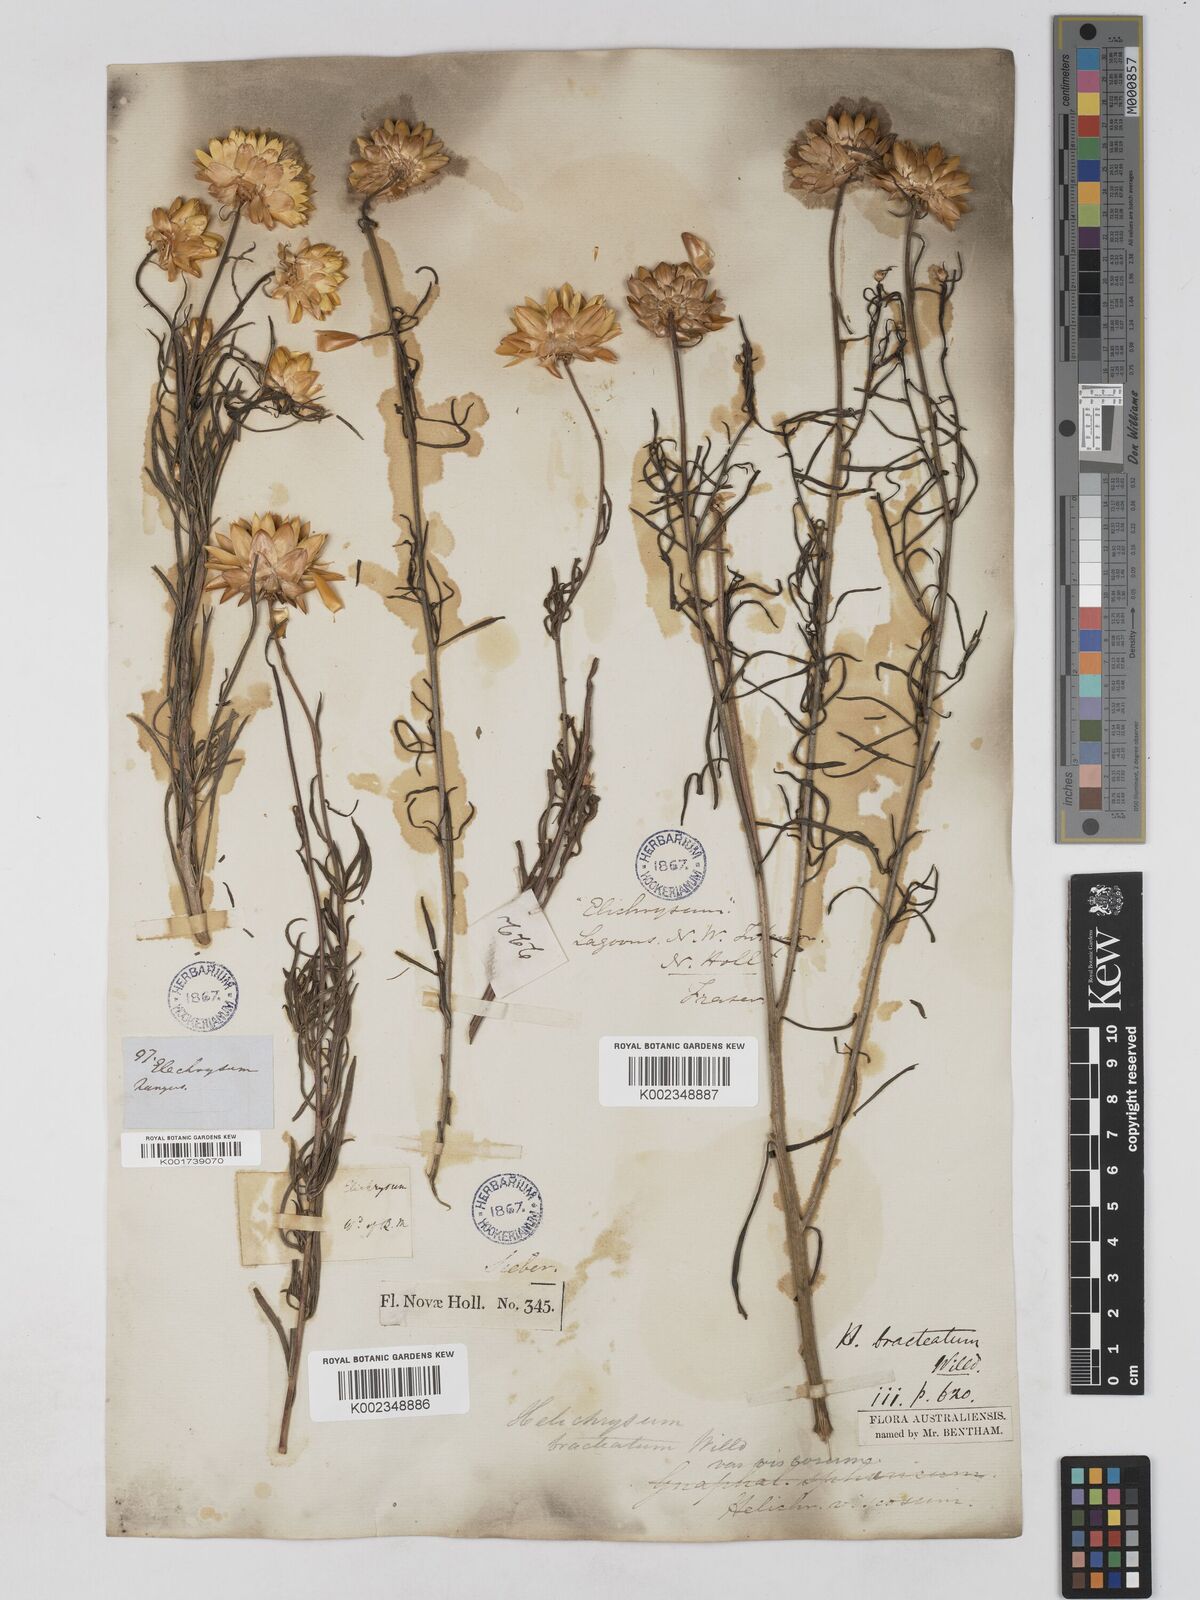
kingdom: Plantae
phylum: Tracheophyta
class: Magnoliopsida
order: Asterales
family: Asteraceae
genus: Xerochrysum
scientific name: Xerochrysum bracteatum
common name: Bracted strawflower
